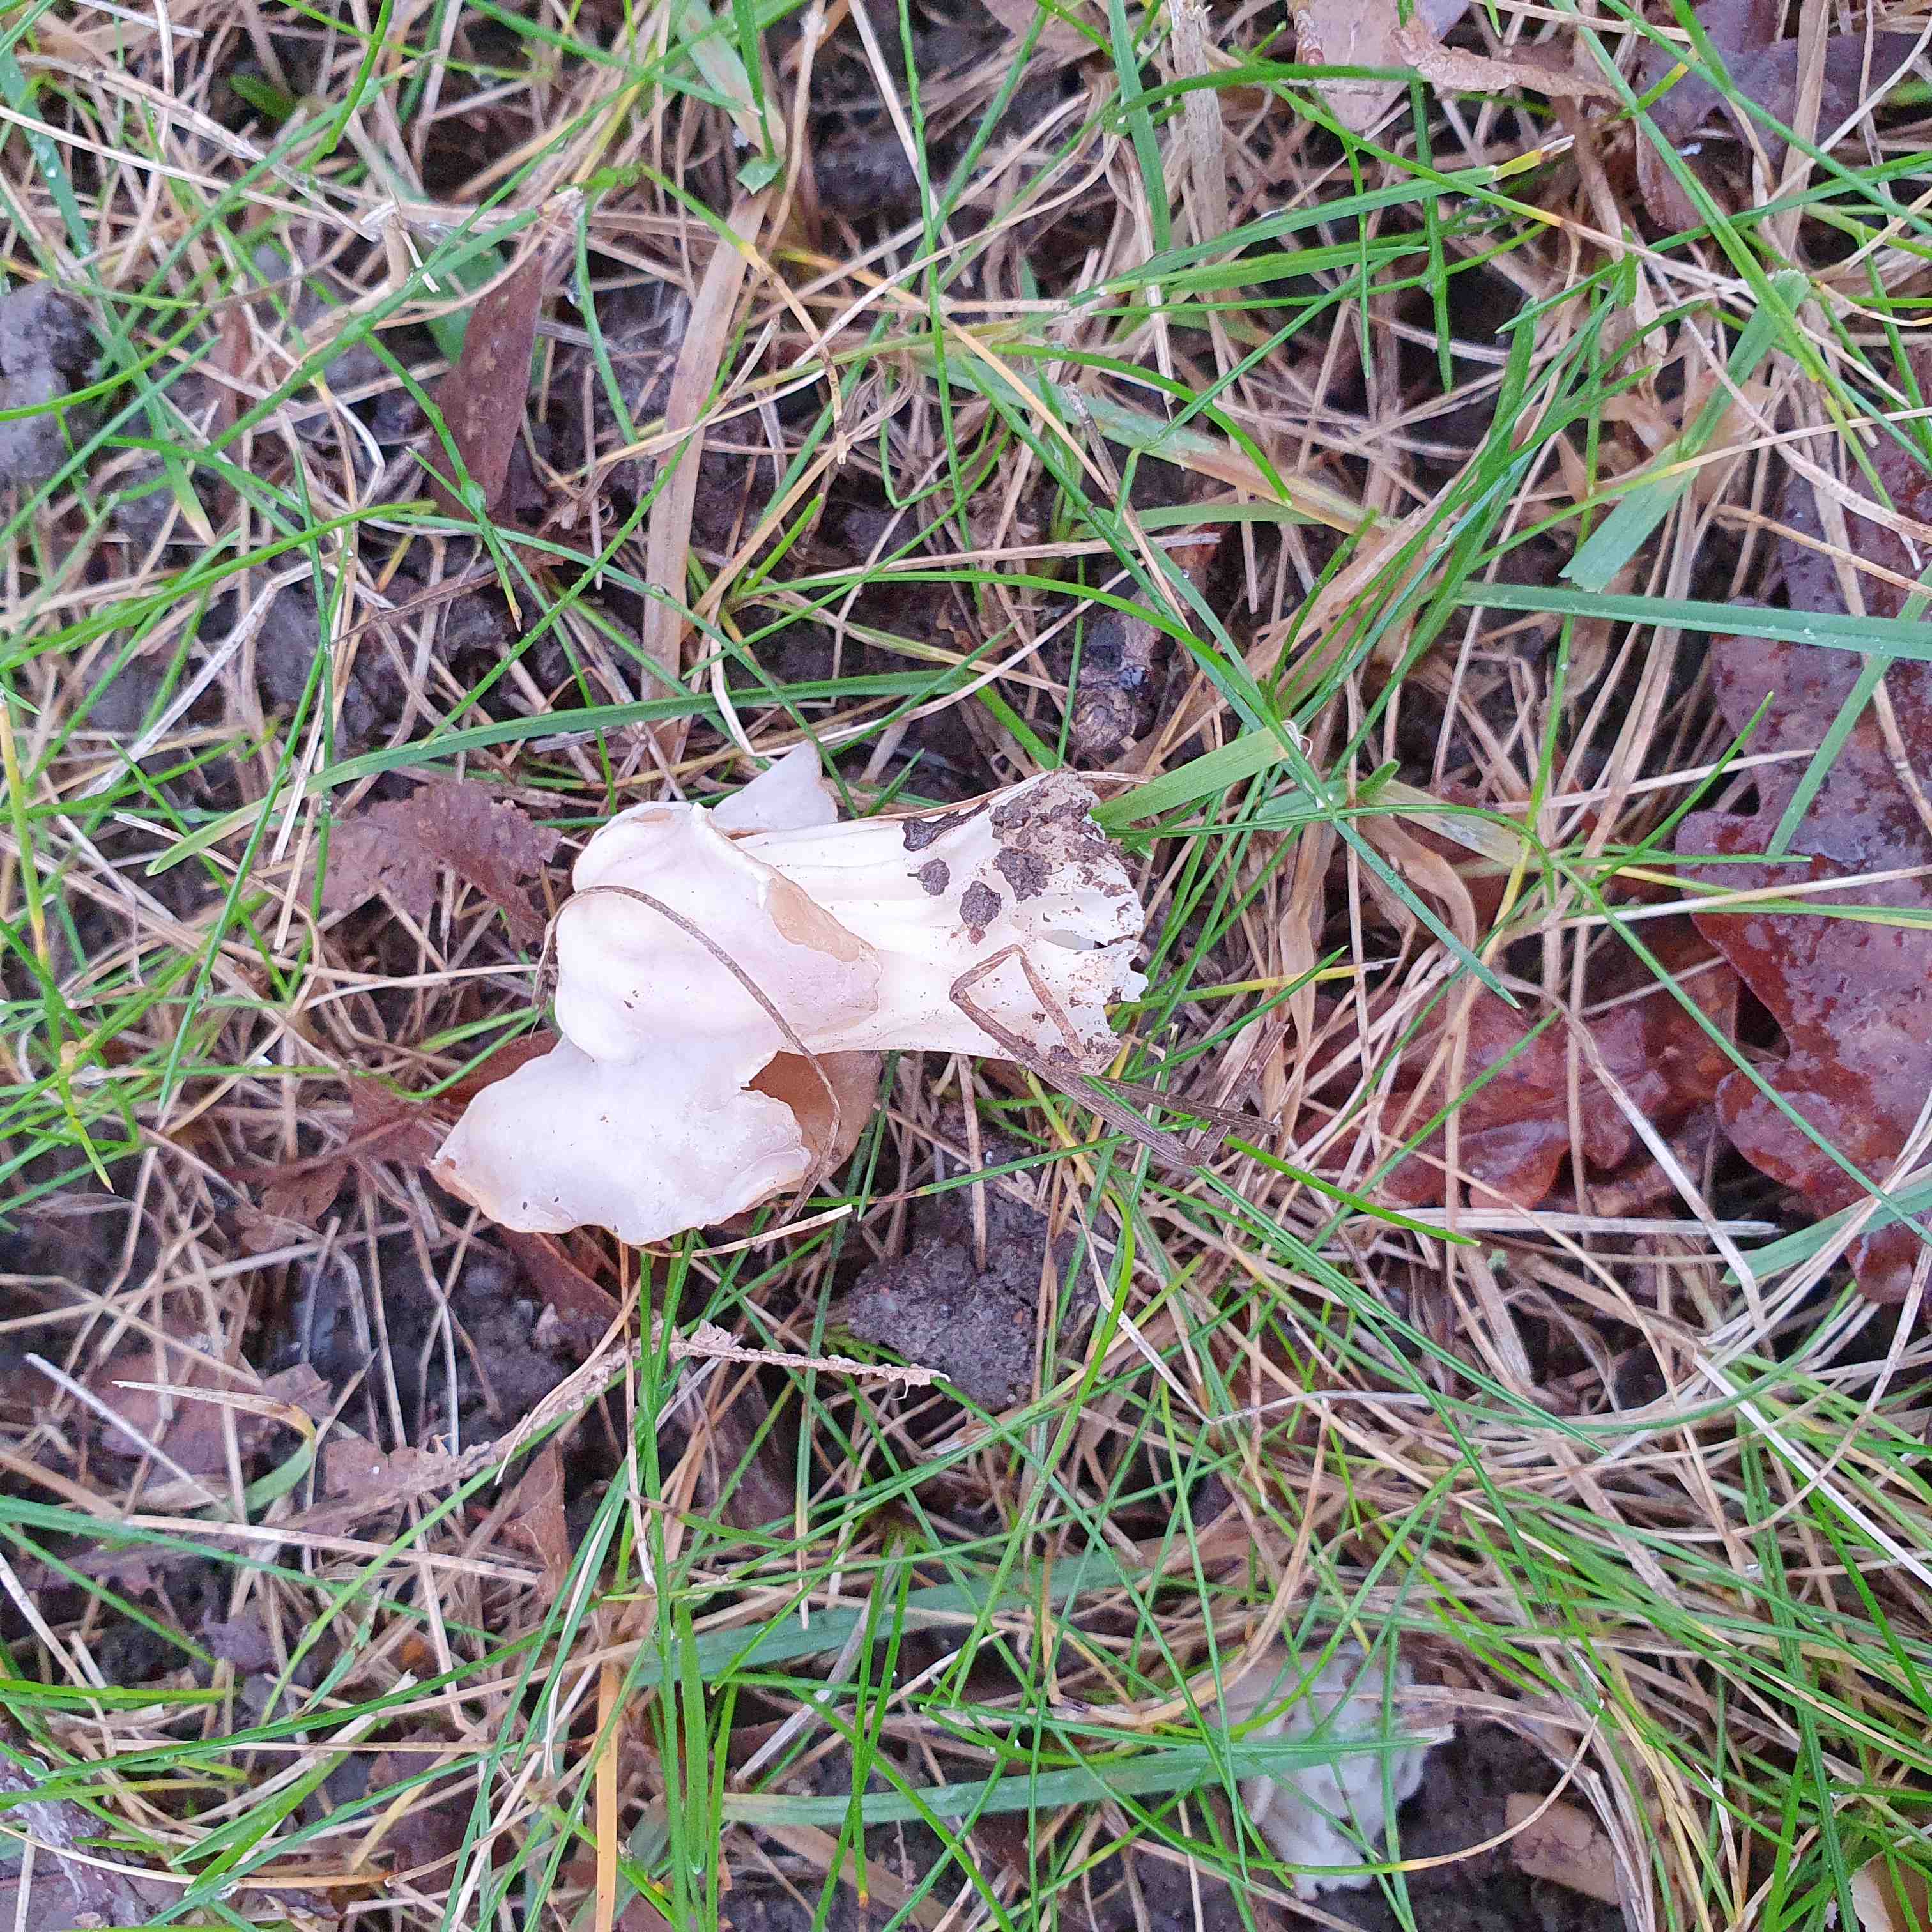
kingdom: Fungi
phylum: Ascomycota
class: Pezizomycetes
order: Pezizales
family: Helvellaceae
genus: Helvella
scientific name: Helvella crispa
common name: kruset foldhat
